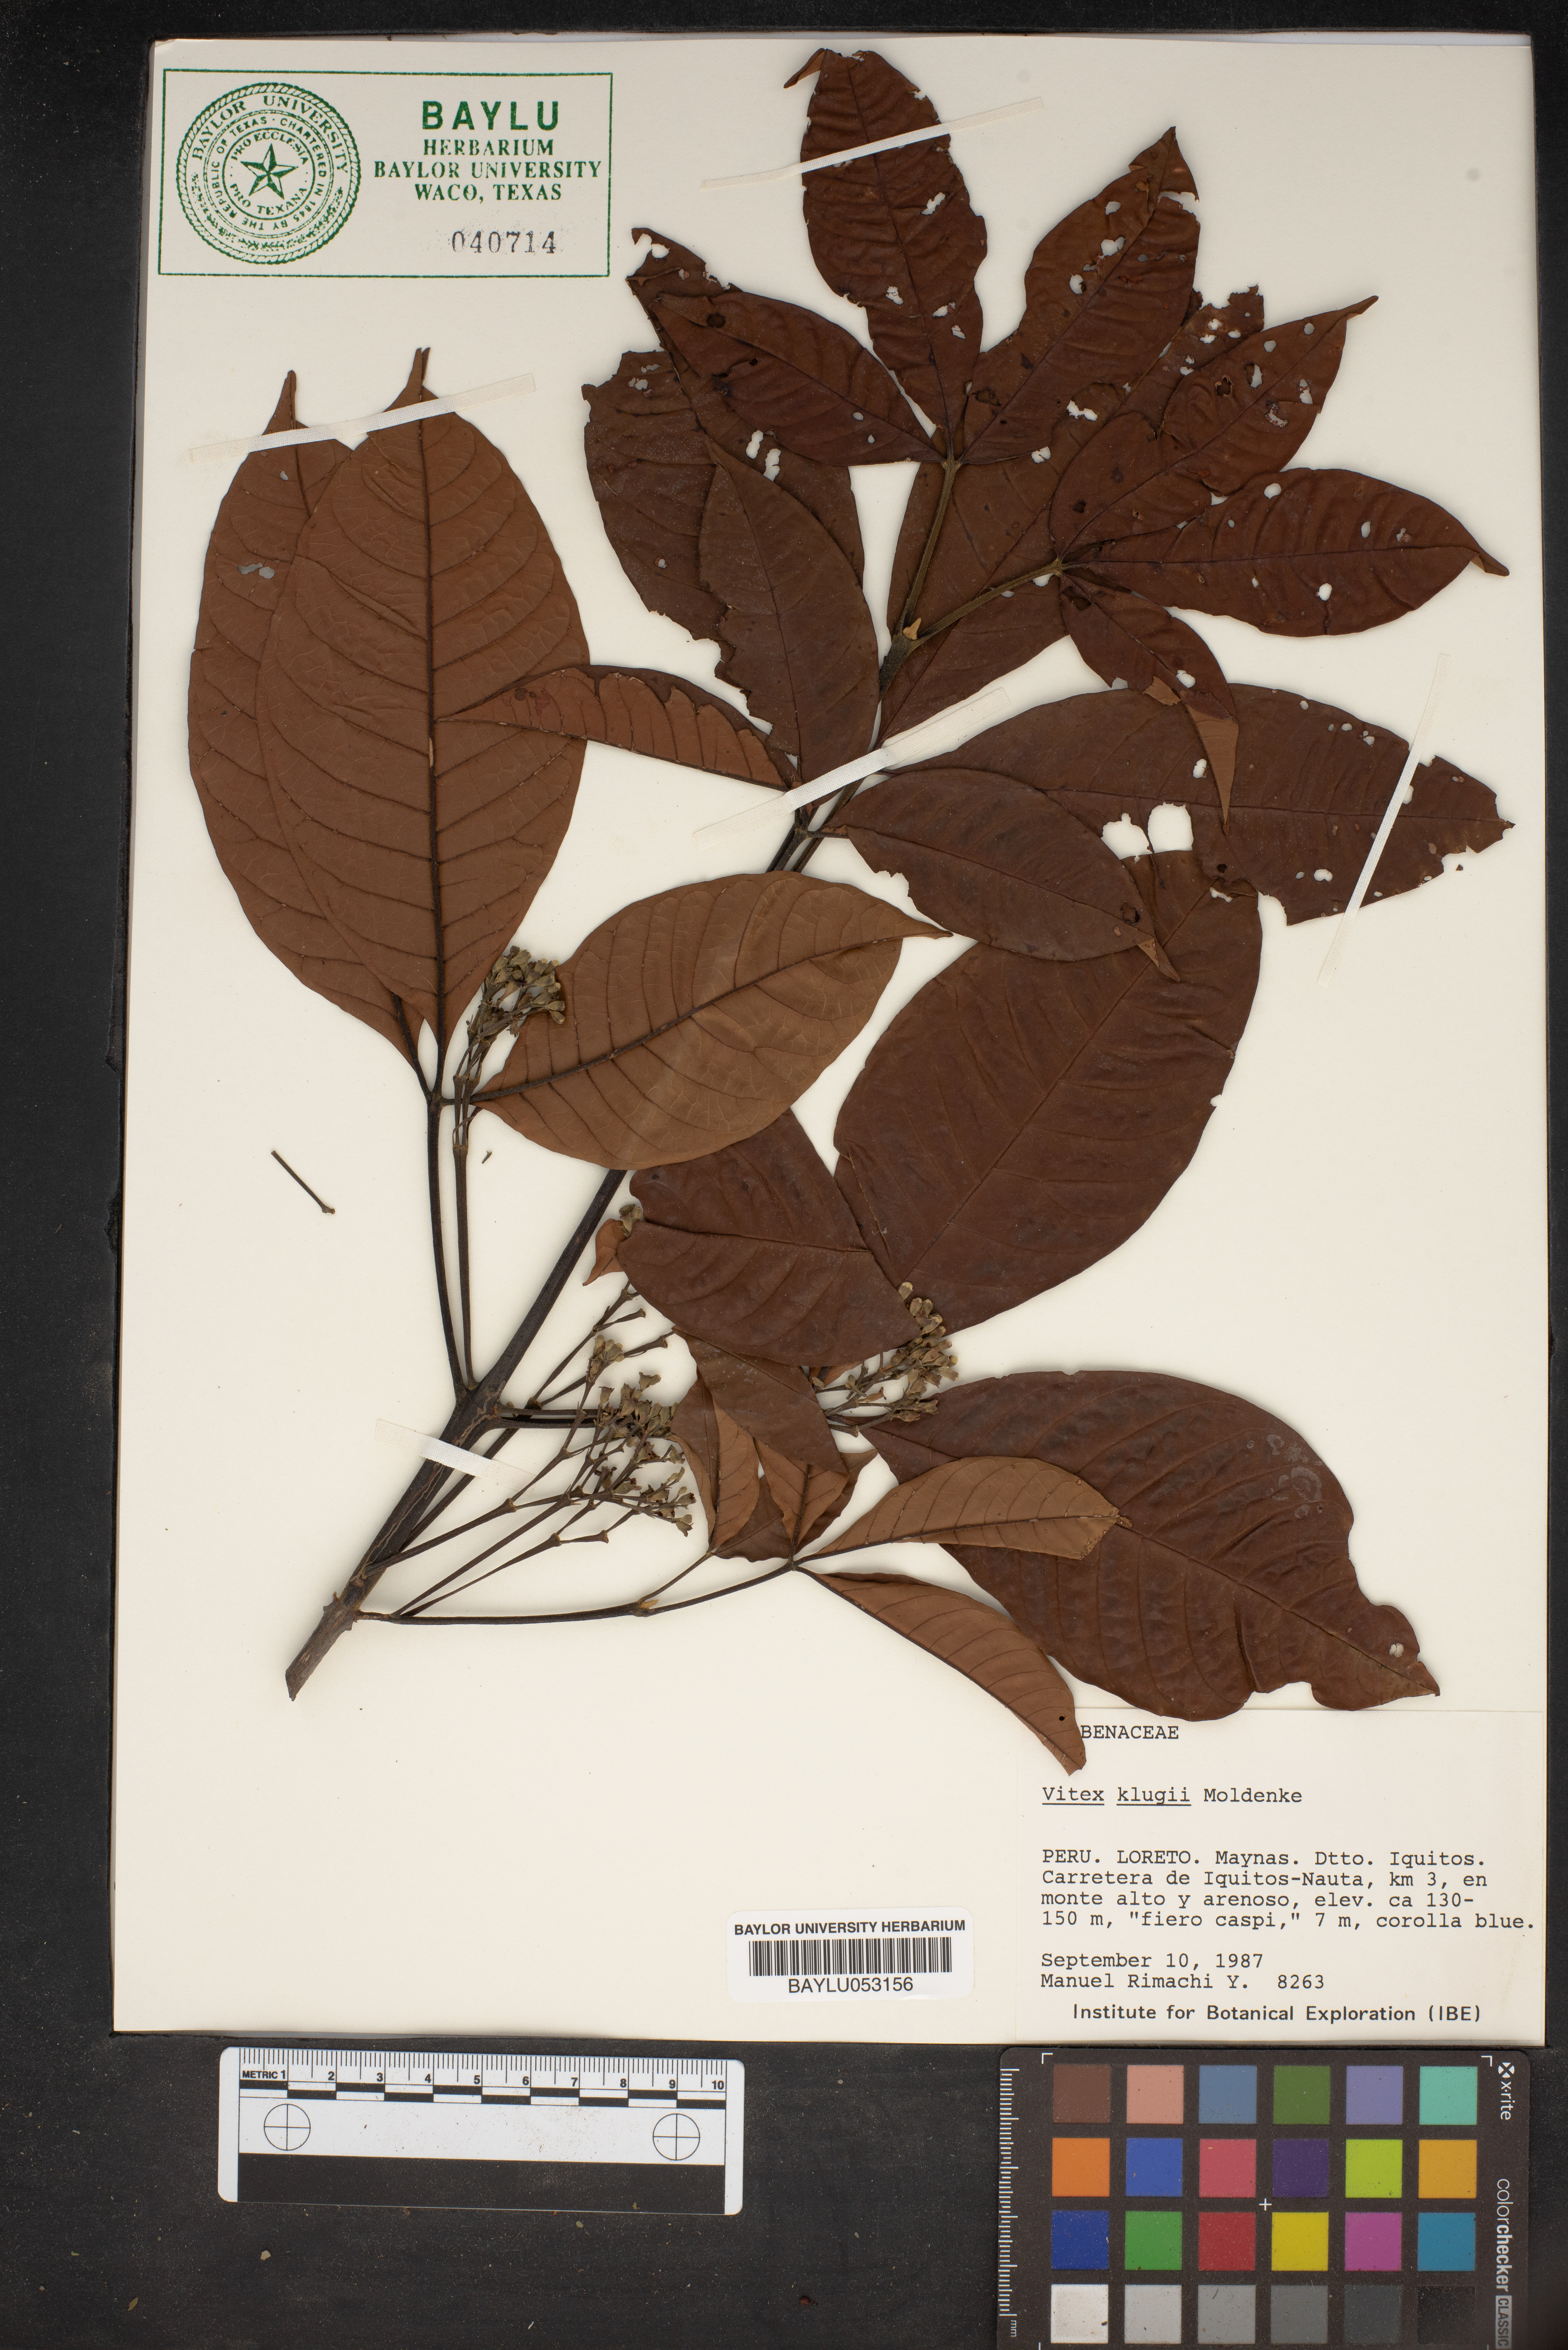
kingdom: Plantae
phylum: Tracheophyta
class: Magnoliopsida
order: Lamiales
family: Lamiaceae
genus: Vitex
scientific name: Vitex klugii
